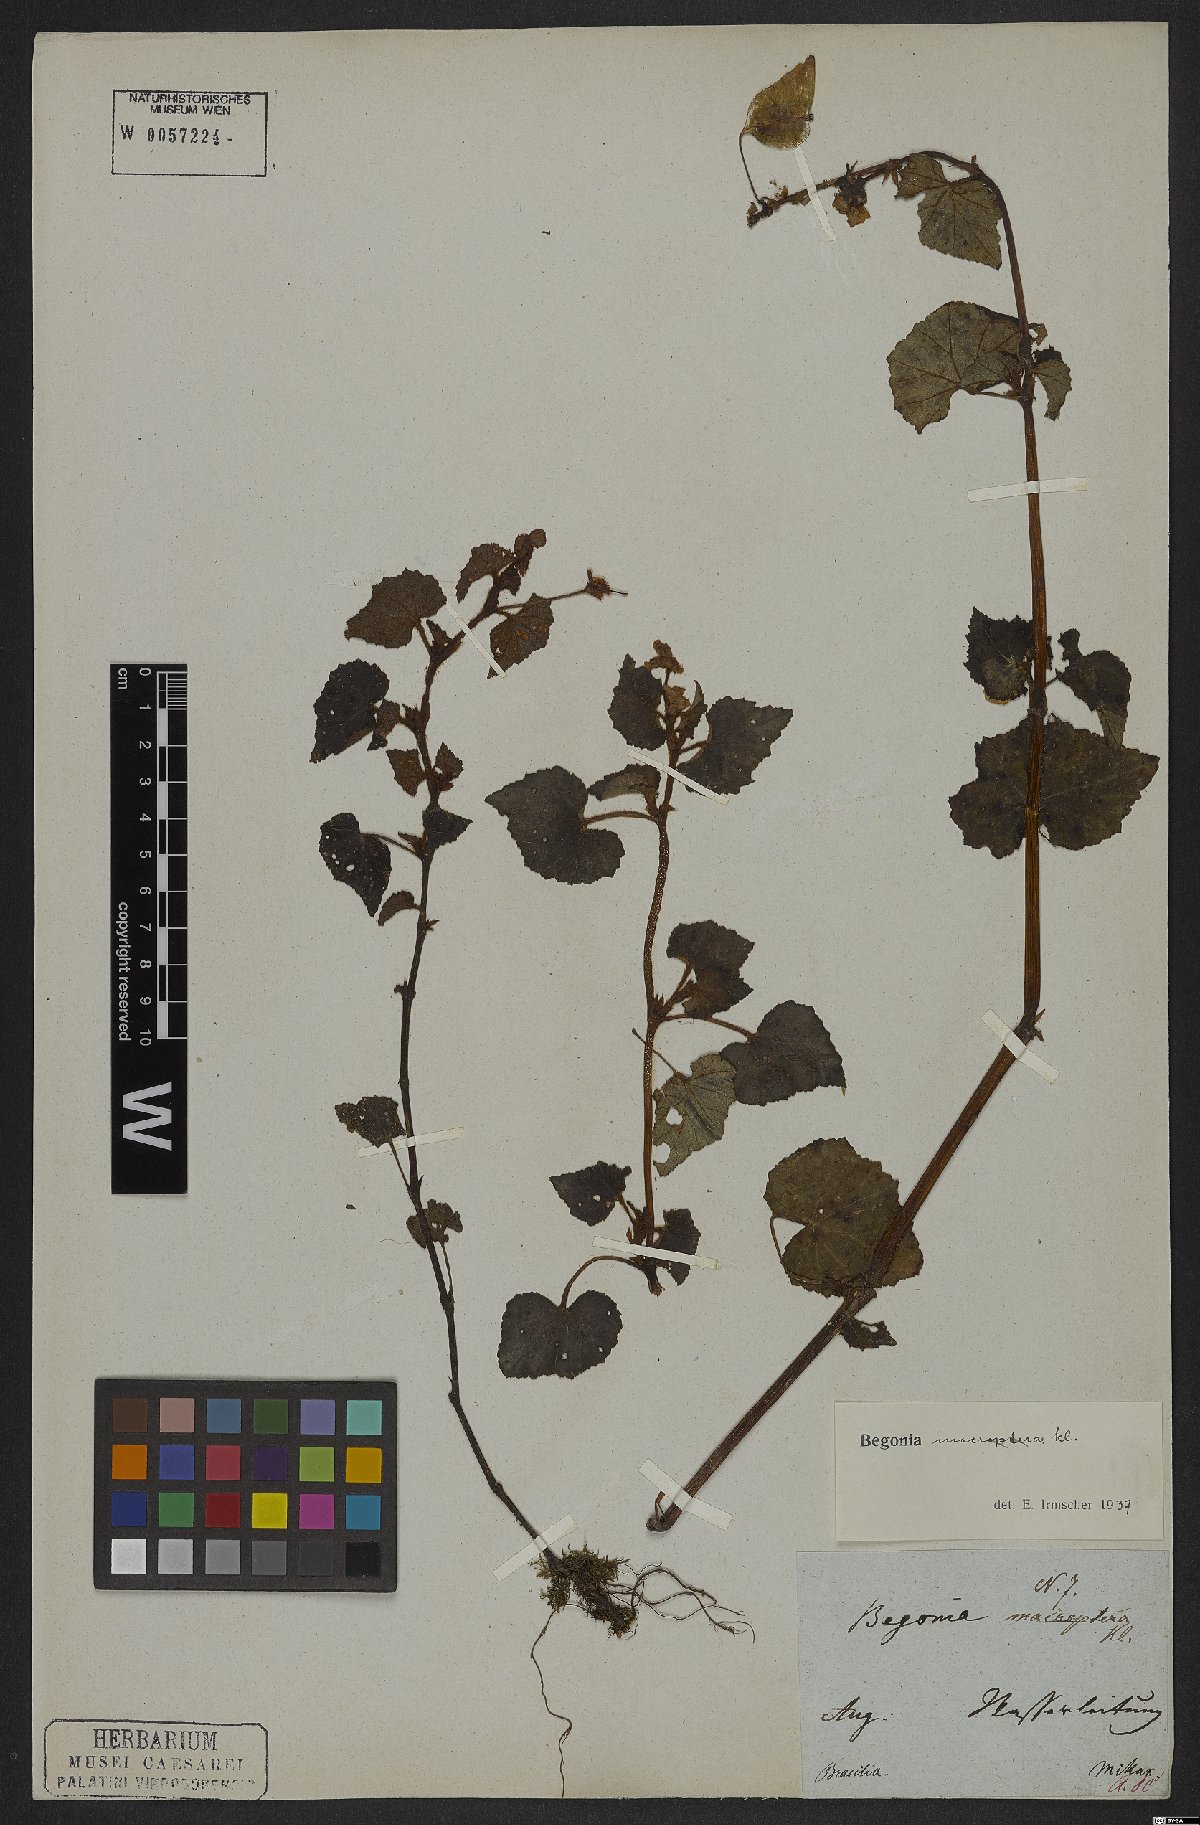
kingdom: Plantae
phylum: Tracheophyta
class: Magnoliopsida
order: Cucurbitales
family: Begoniaceae
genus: Begonia
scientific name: Begonia fischeri
